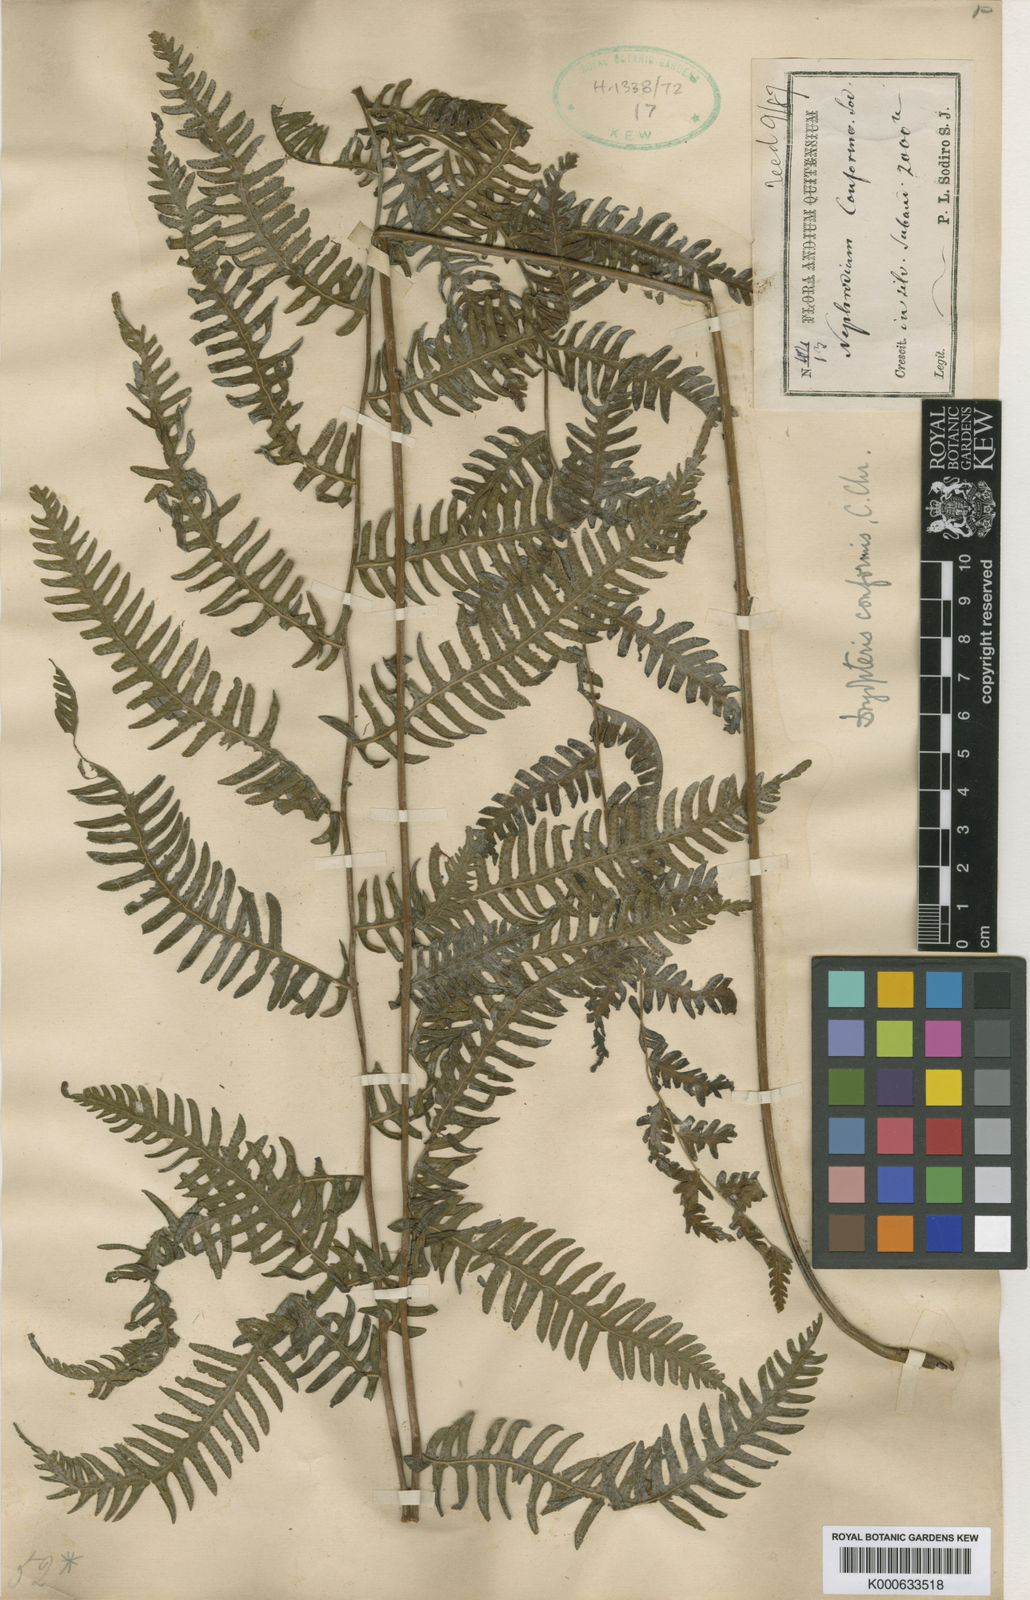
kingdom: Plantae
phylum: Tracheophyta
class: Polypodiopsida
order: Polypodiales
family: Thelypteridaceae
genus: Amauropelta
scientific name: Amauropelta conformis
